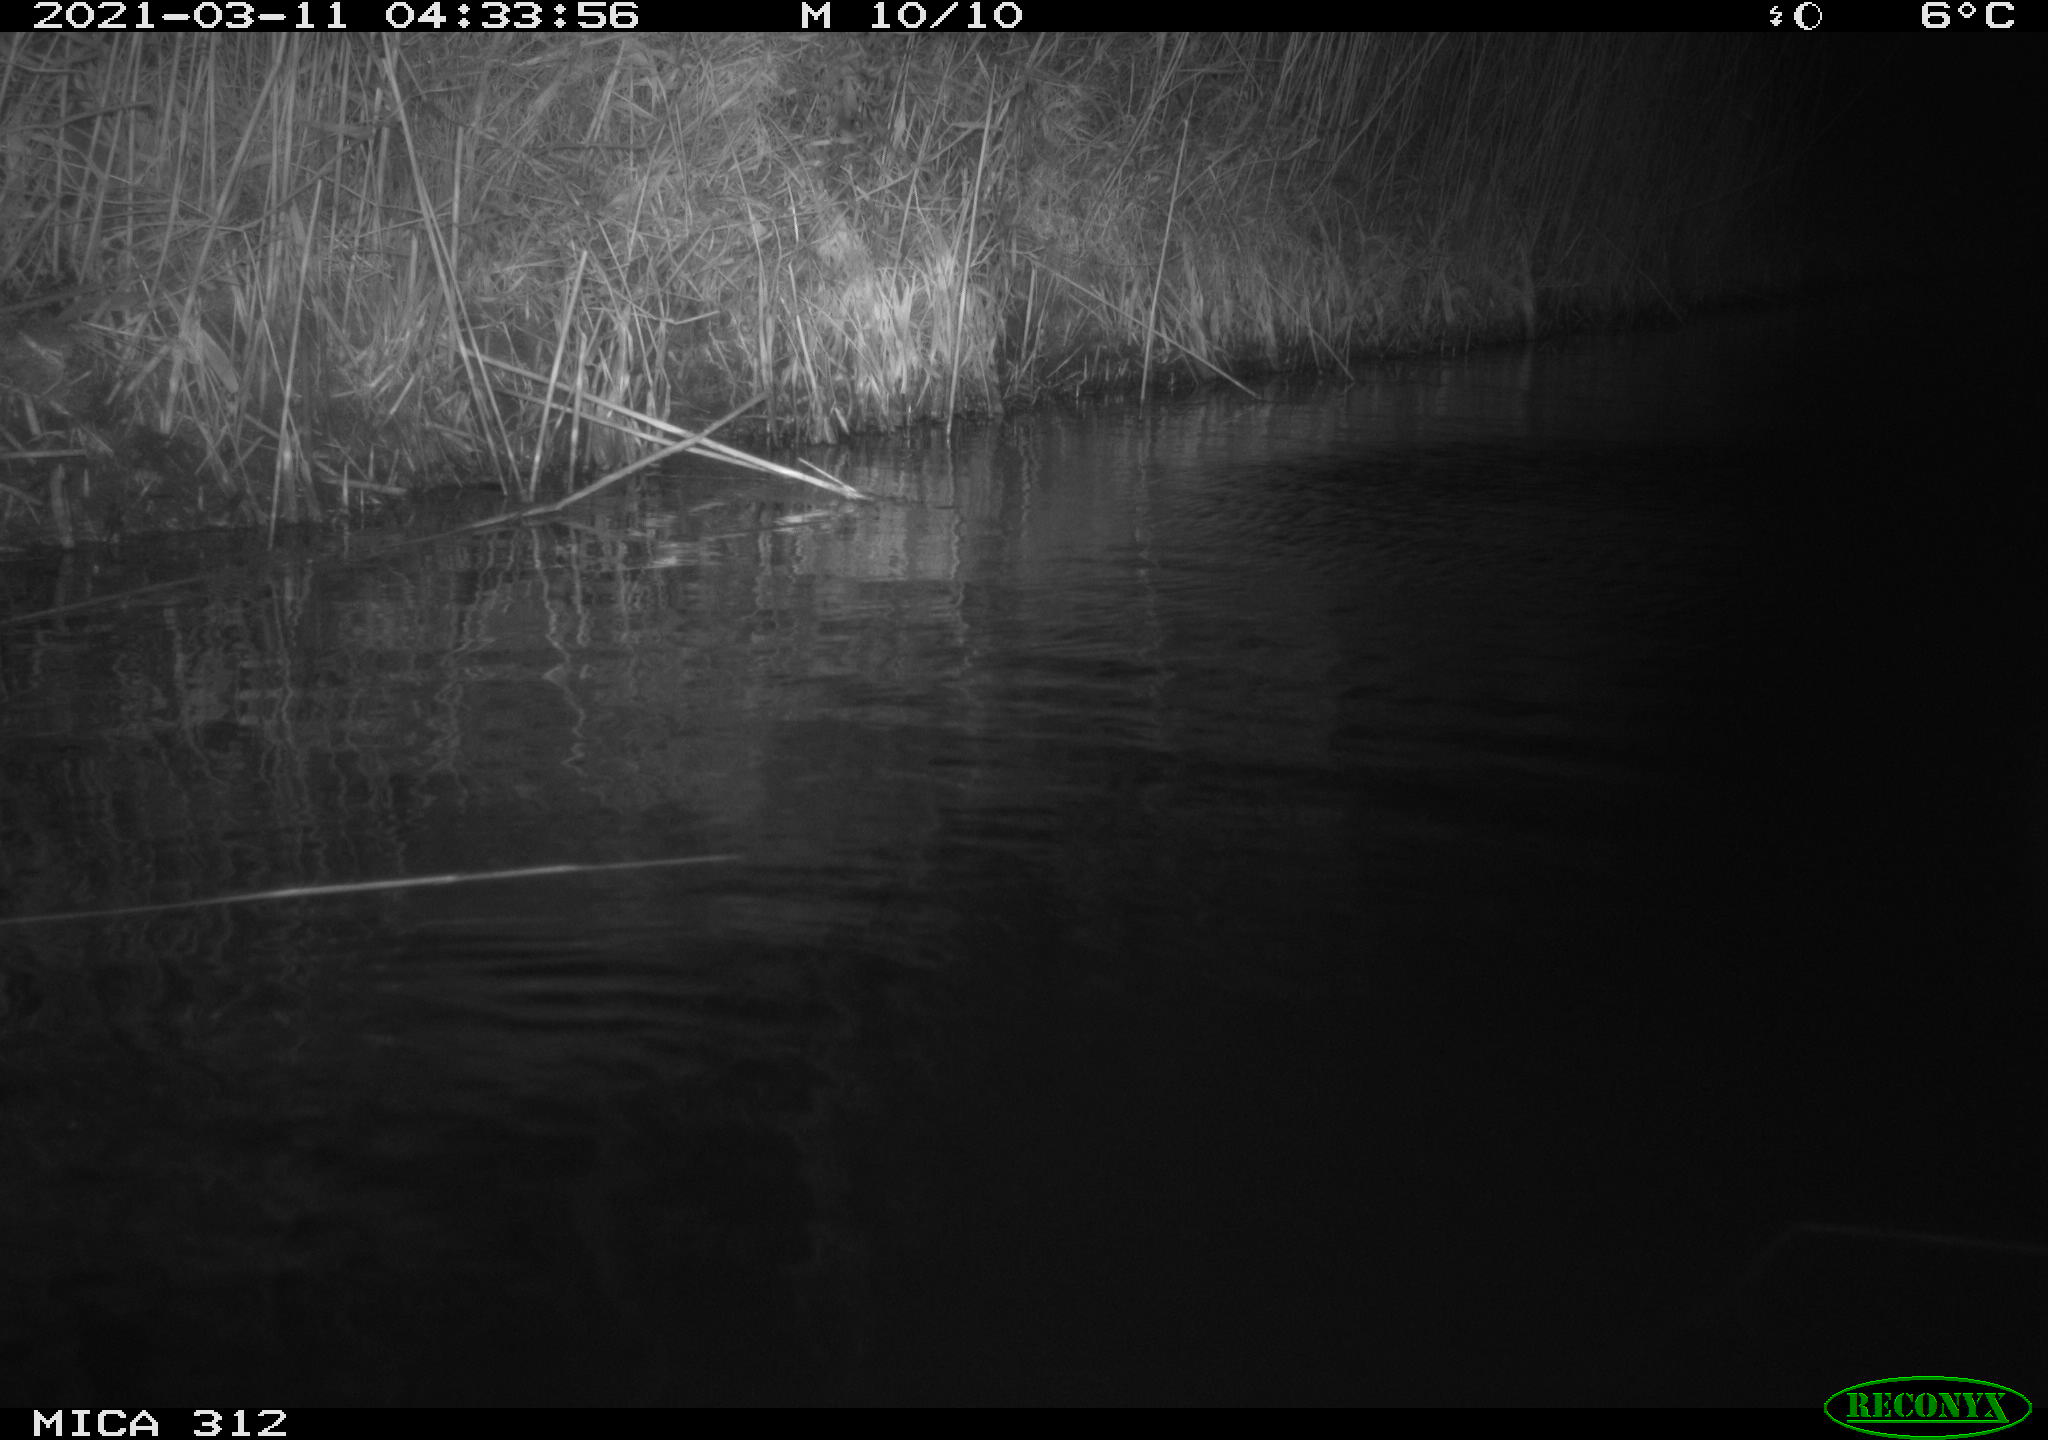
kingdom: Animalia
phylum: Chordata
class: Aves
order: Gruiformes
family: Rallidae
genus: Fulica
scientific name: Fulica atra
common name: Eurasian coot
